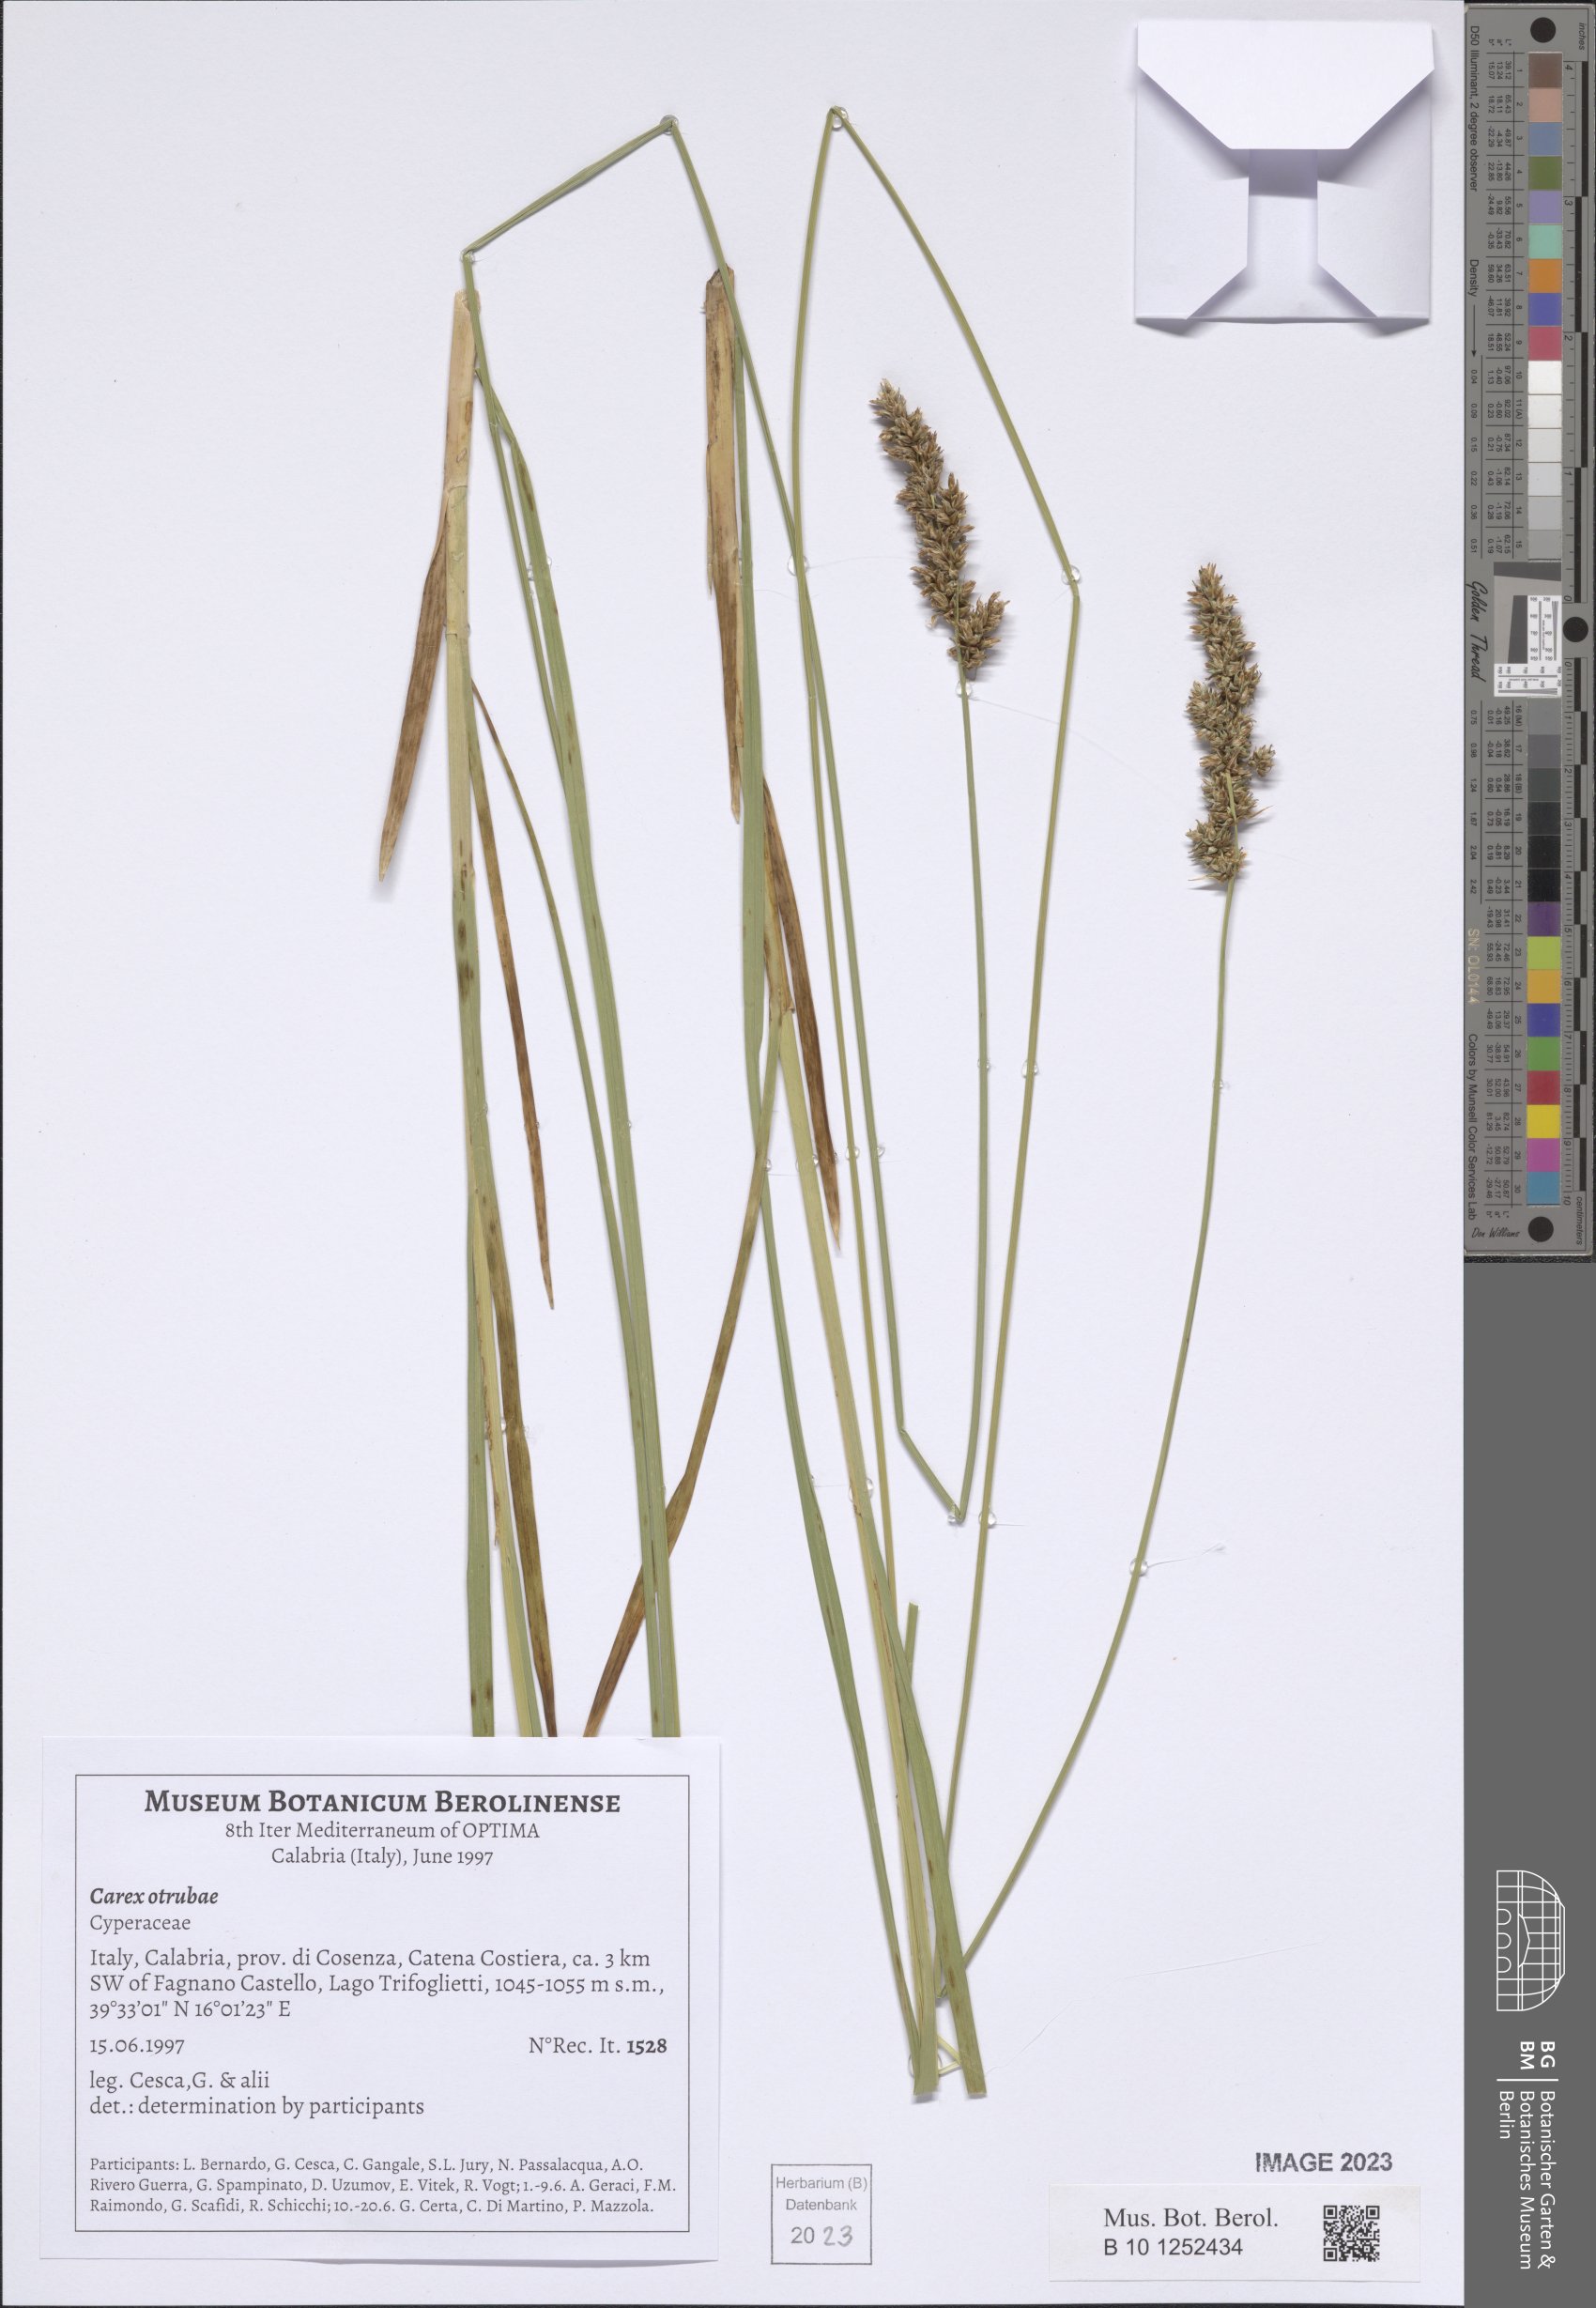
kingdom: Plantae
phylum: Tracheophyta
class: Liliopsida
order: Poales
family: Cyperaceae
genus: Carex
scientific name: Carex otrubae
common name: False fox-sedge
